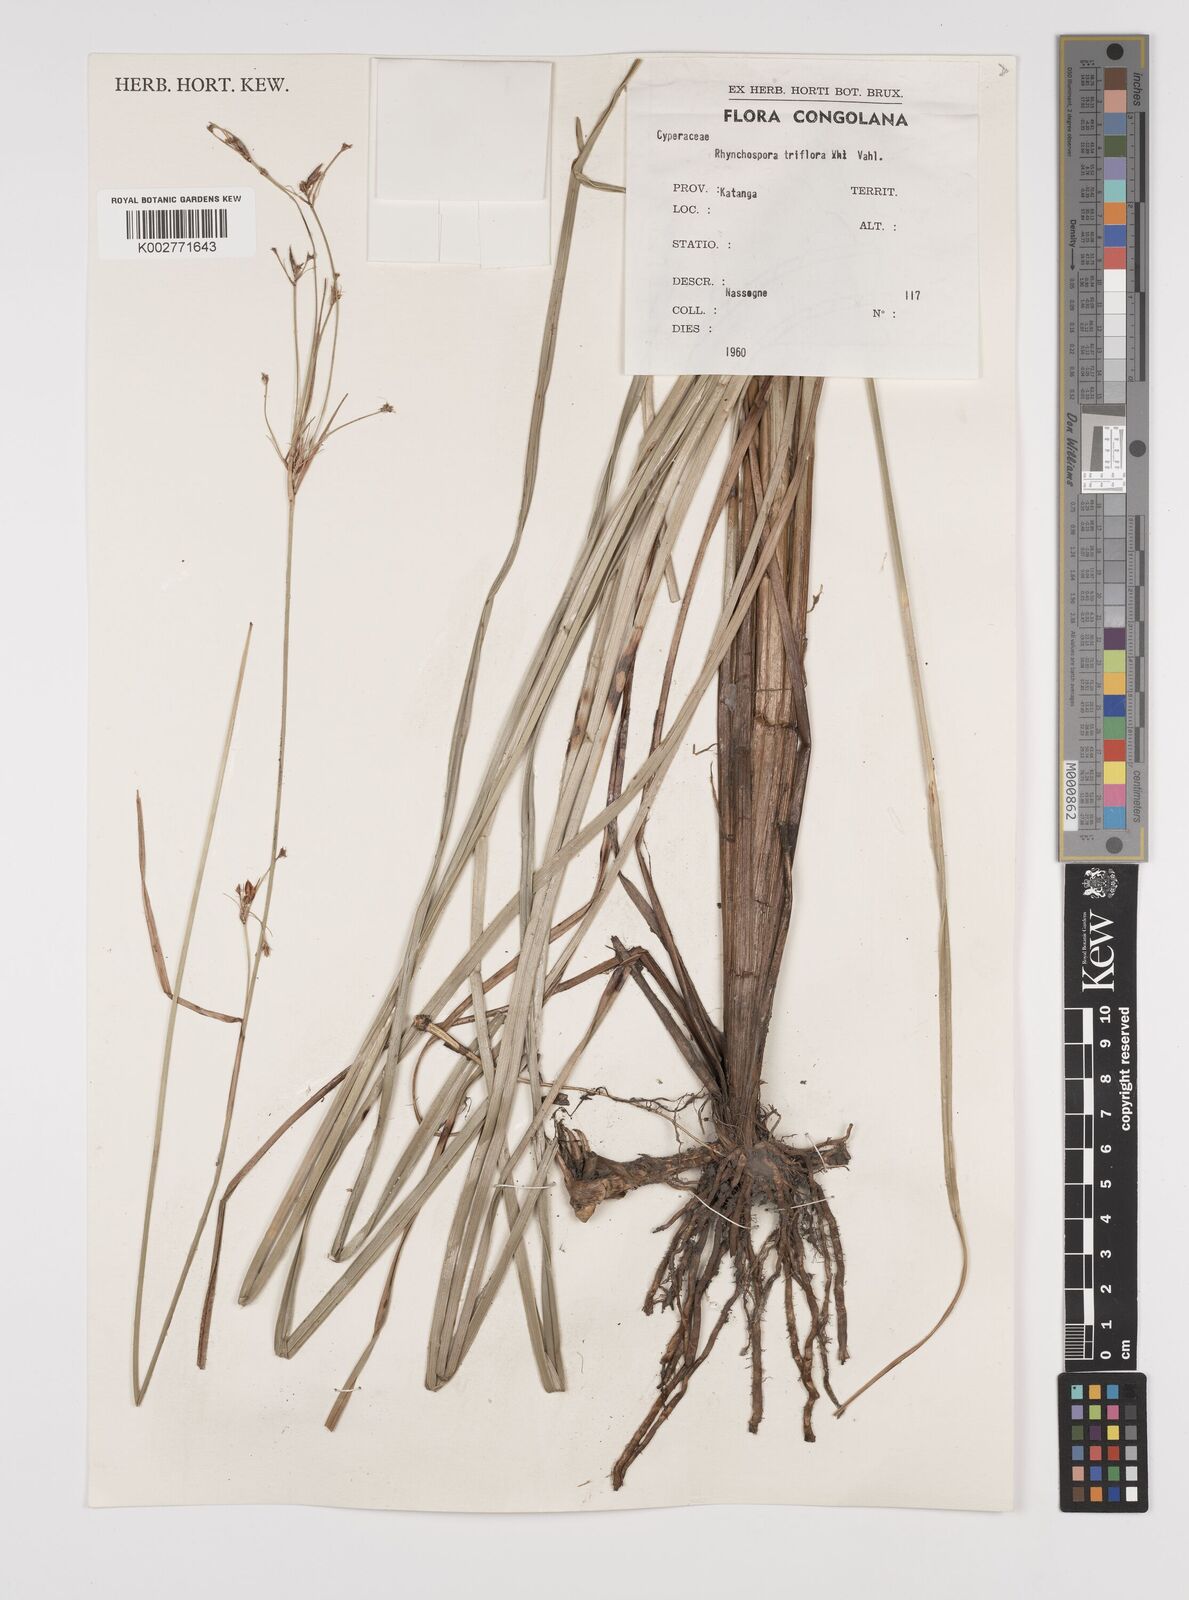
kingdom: Plantae
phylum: Tracheophyta
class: Liliopsida
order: Poales
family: Cyperaceae
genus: Rhynchospora
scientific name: Rhynchospora triflora
